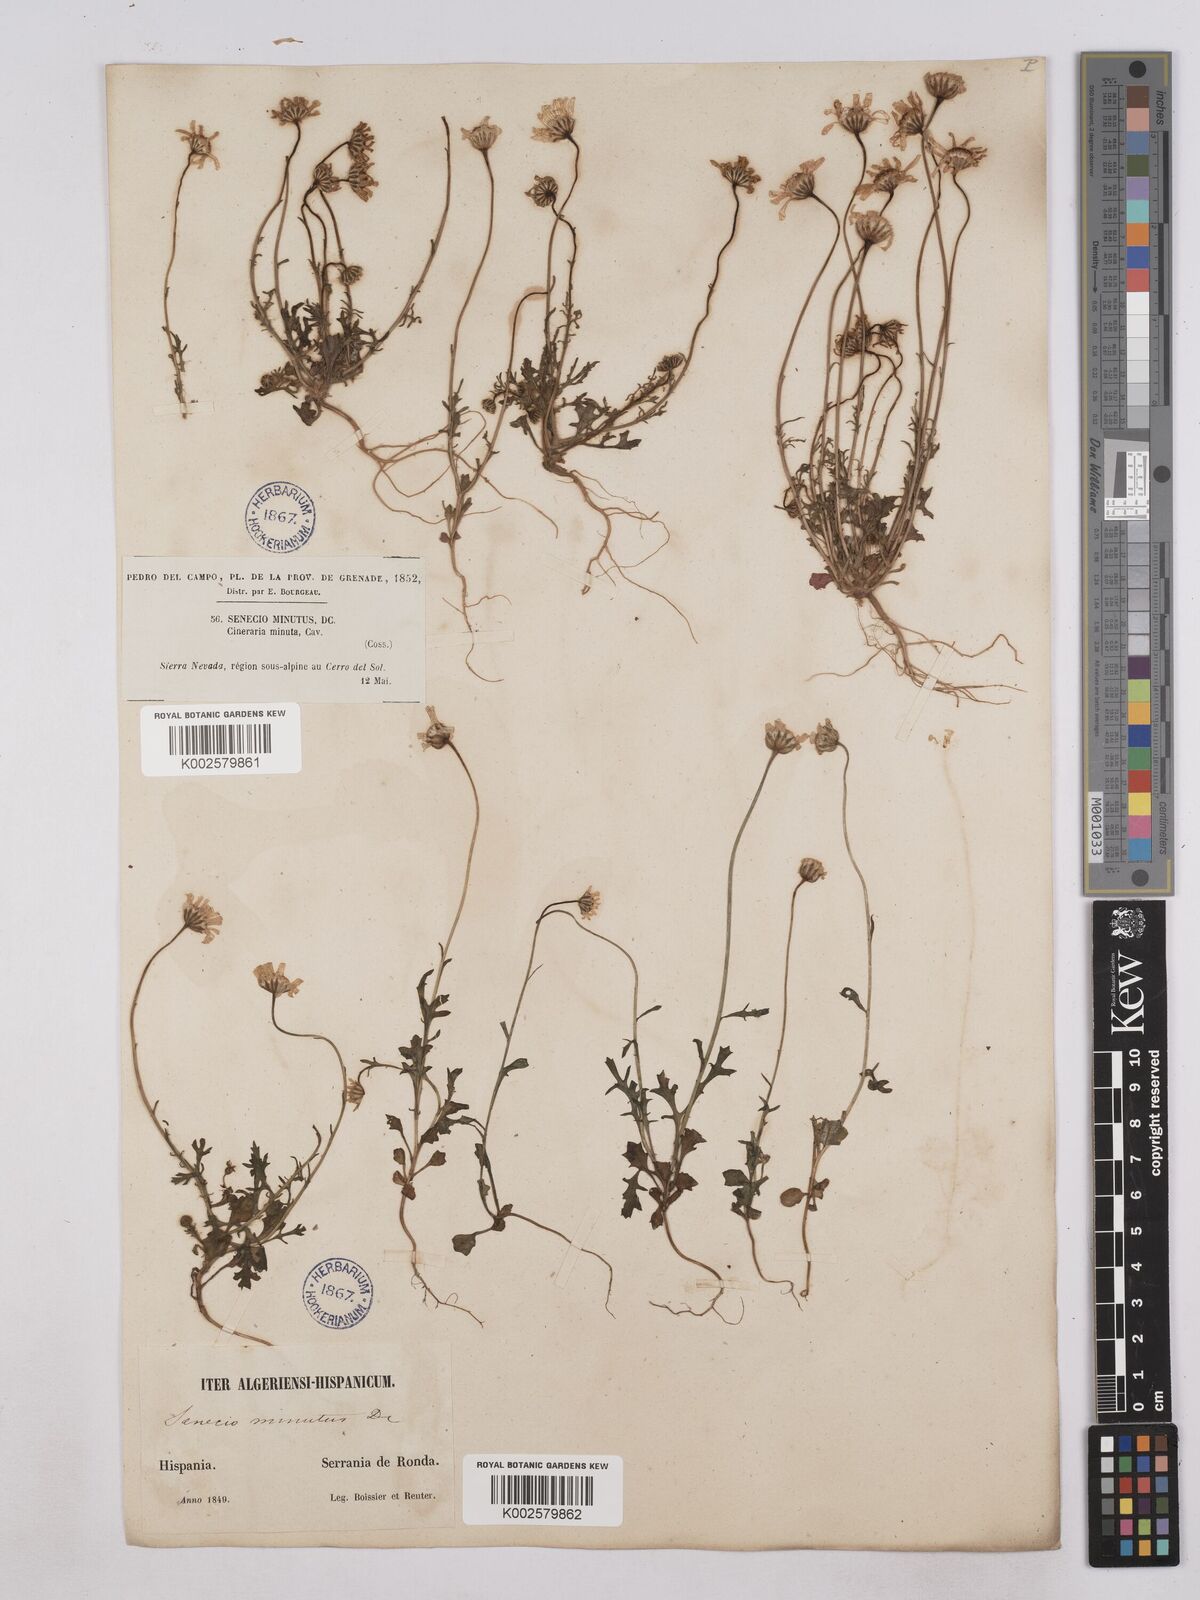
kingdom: Plantae
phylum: Tracheophyta
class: Magnoliopsida
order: Asterales
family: Asteraceae
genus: Jacobaea
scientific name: Jacobaea minuta
